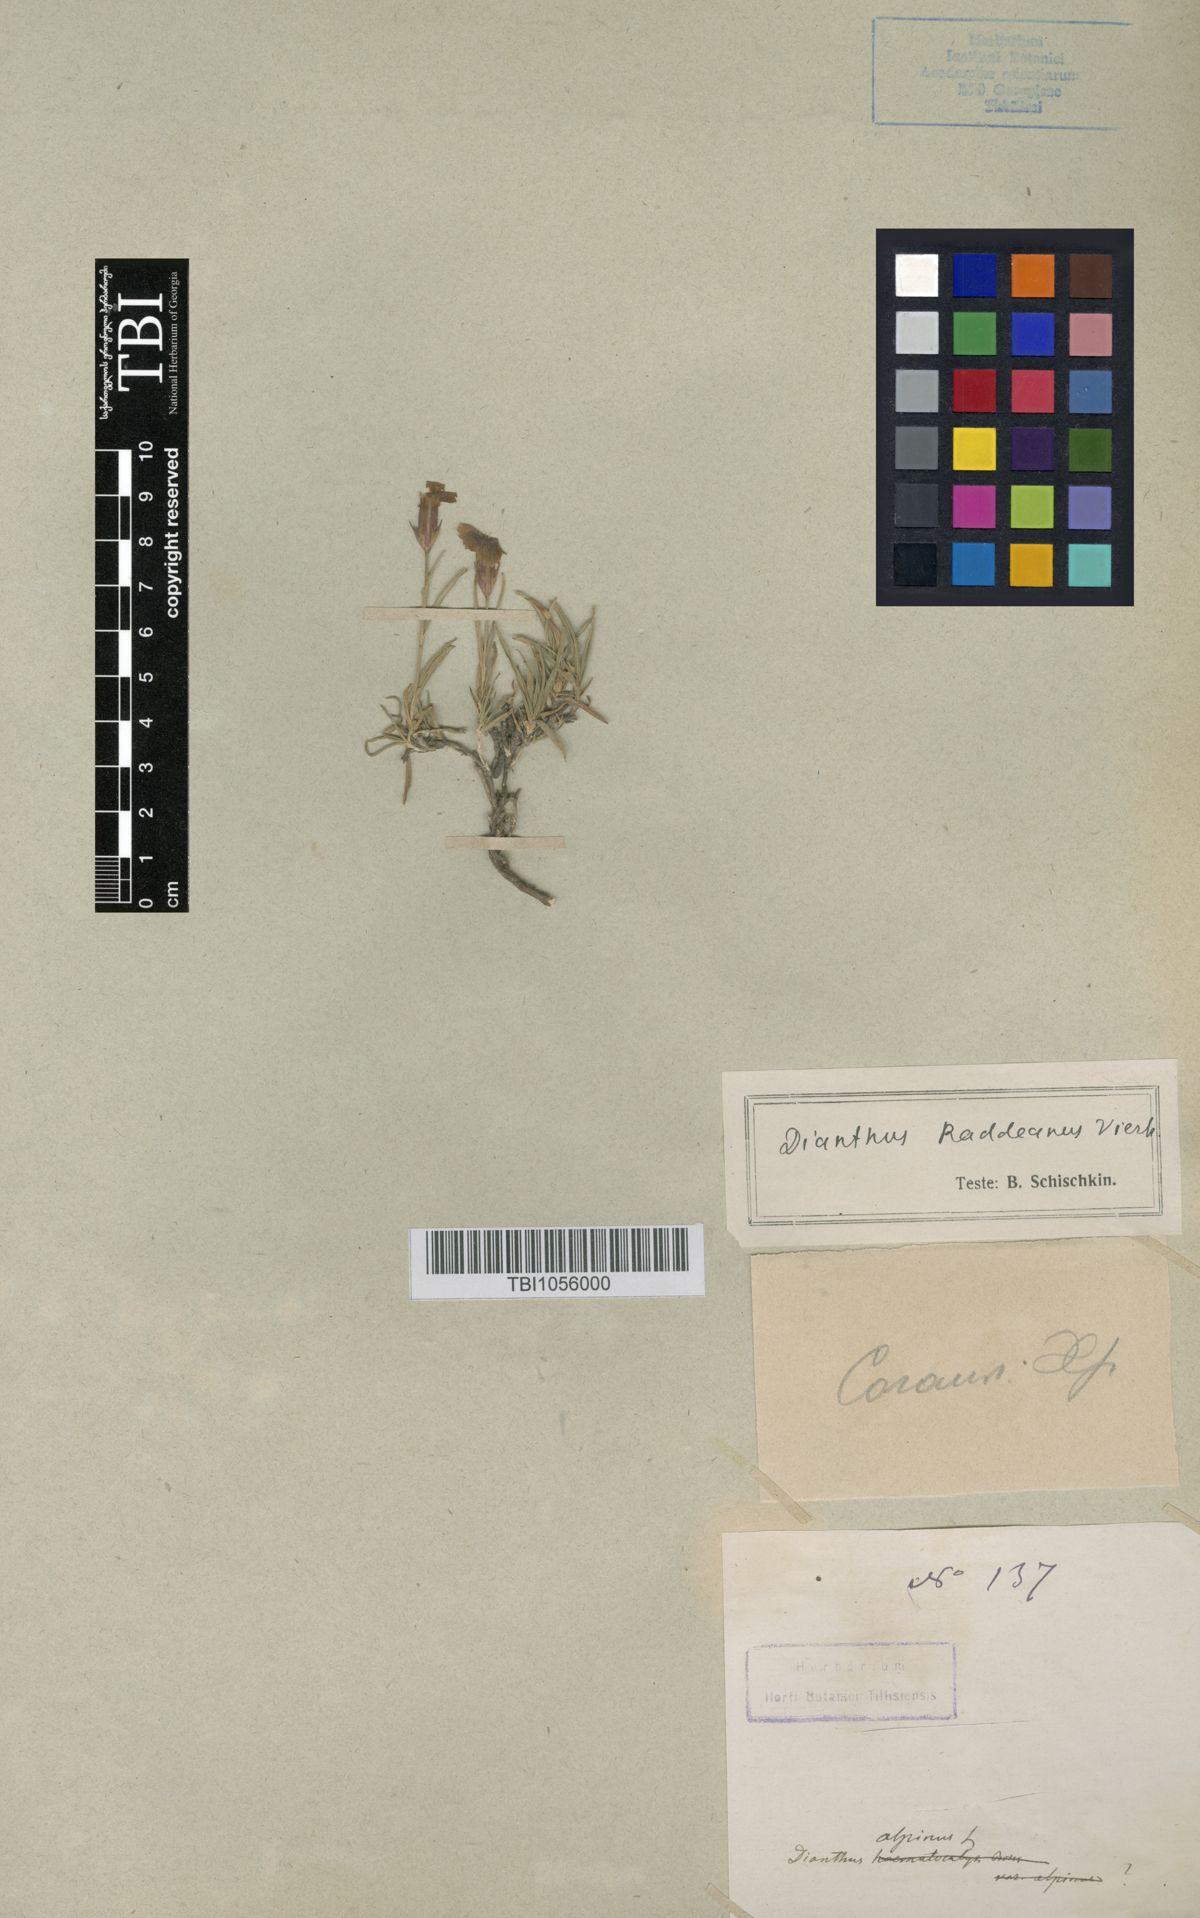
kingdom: Plantae
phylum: Tracheophyta
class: Magnoliopsida
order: Caryophyllales
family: Caryophyllaceae
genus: Dianthus
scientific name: Dianthus raddeanus
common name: Radde's pink
